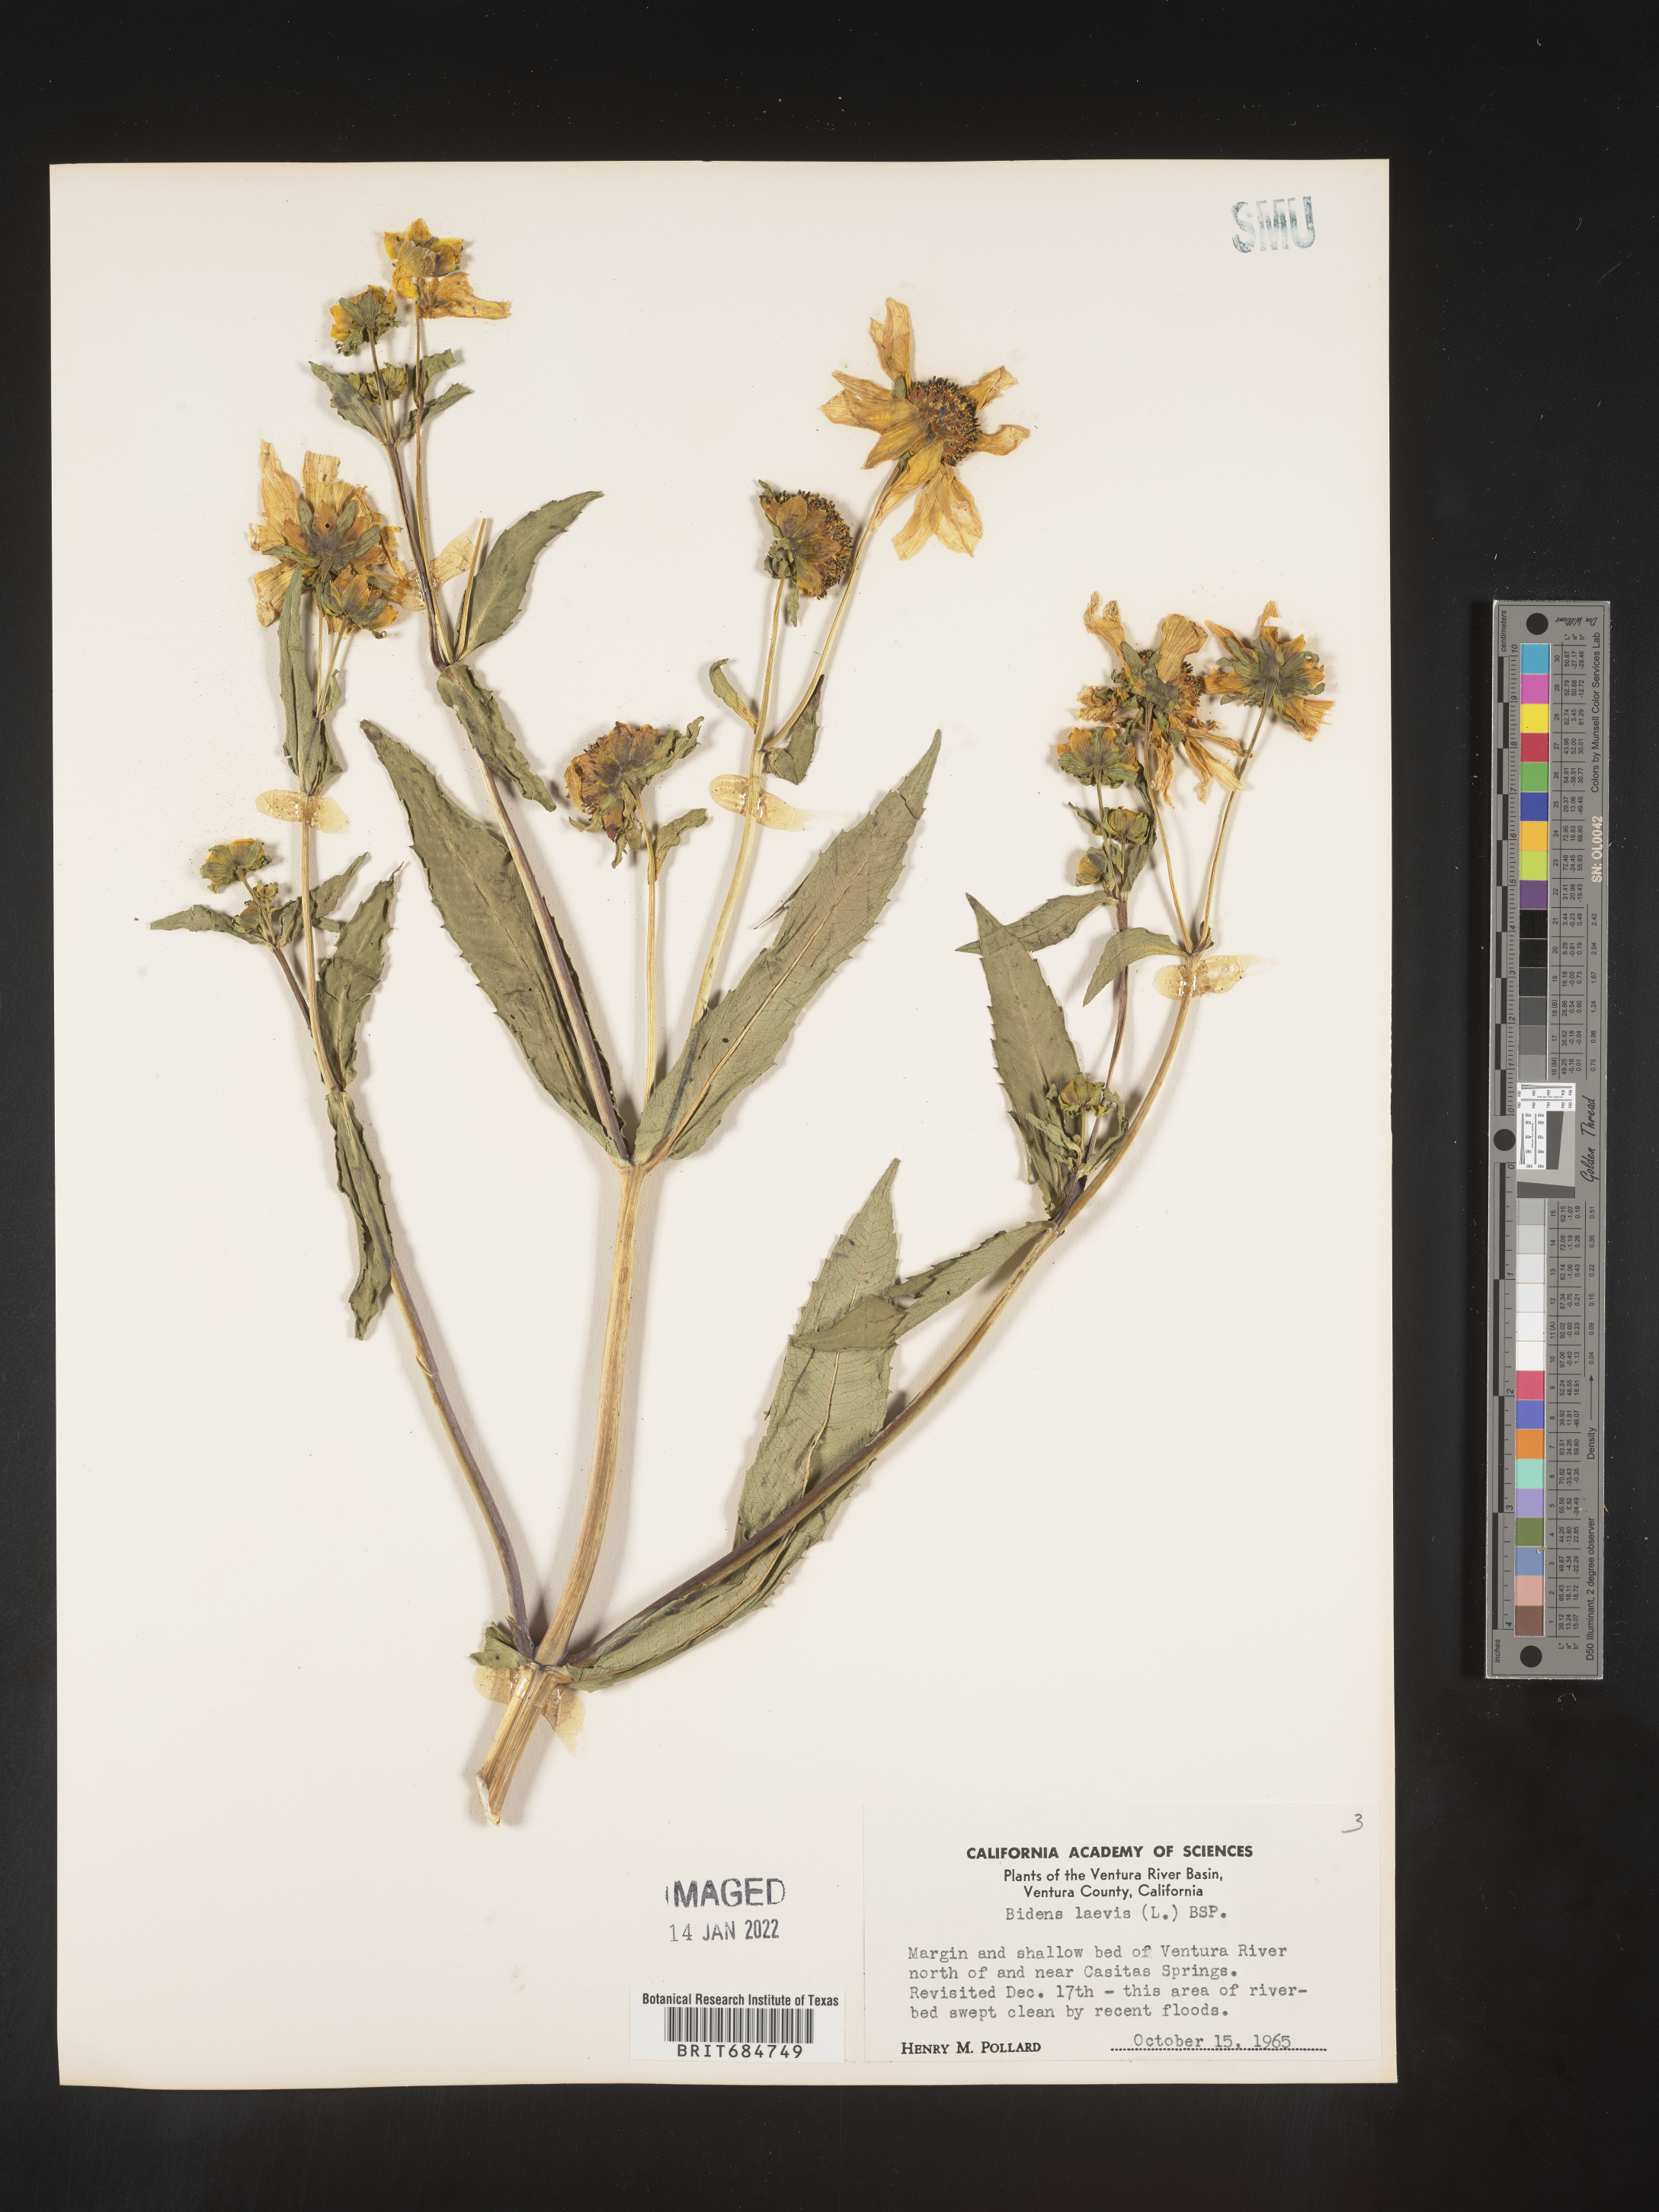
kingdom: Plantae
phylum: Tracheophyta
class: Magnoliopsida
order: Asterales
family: Asteraceae
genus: Bidens
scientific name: Bidens laevis
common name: Larger bur-marigold
